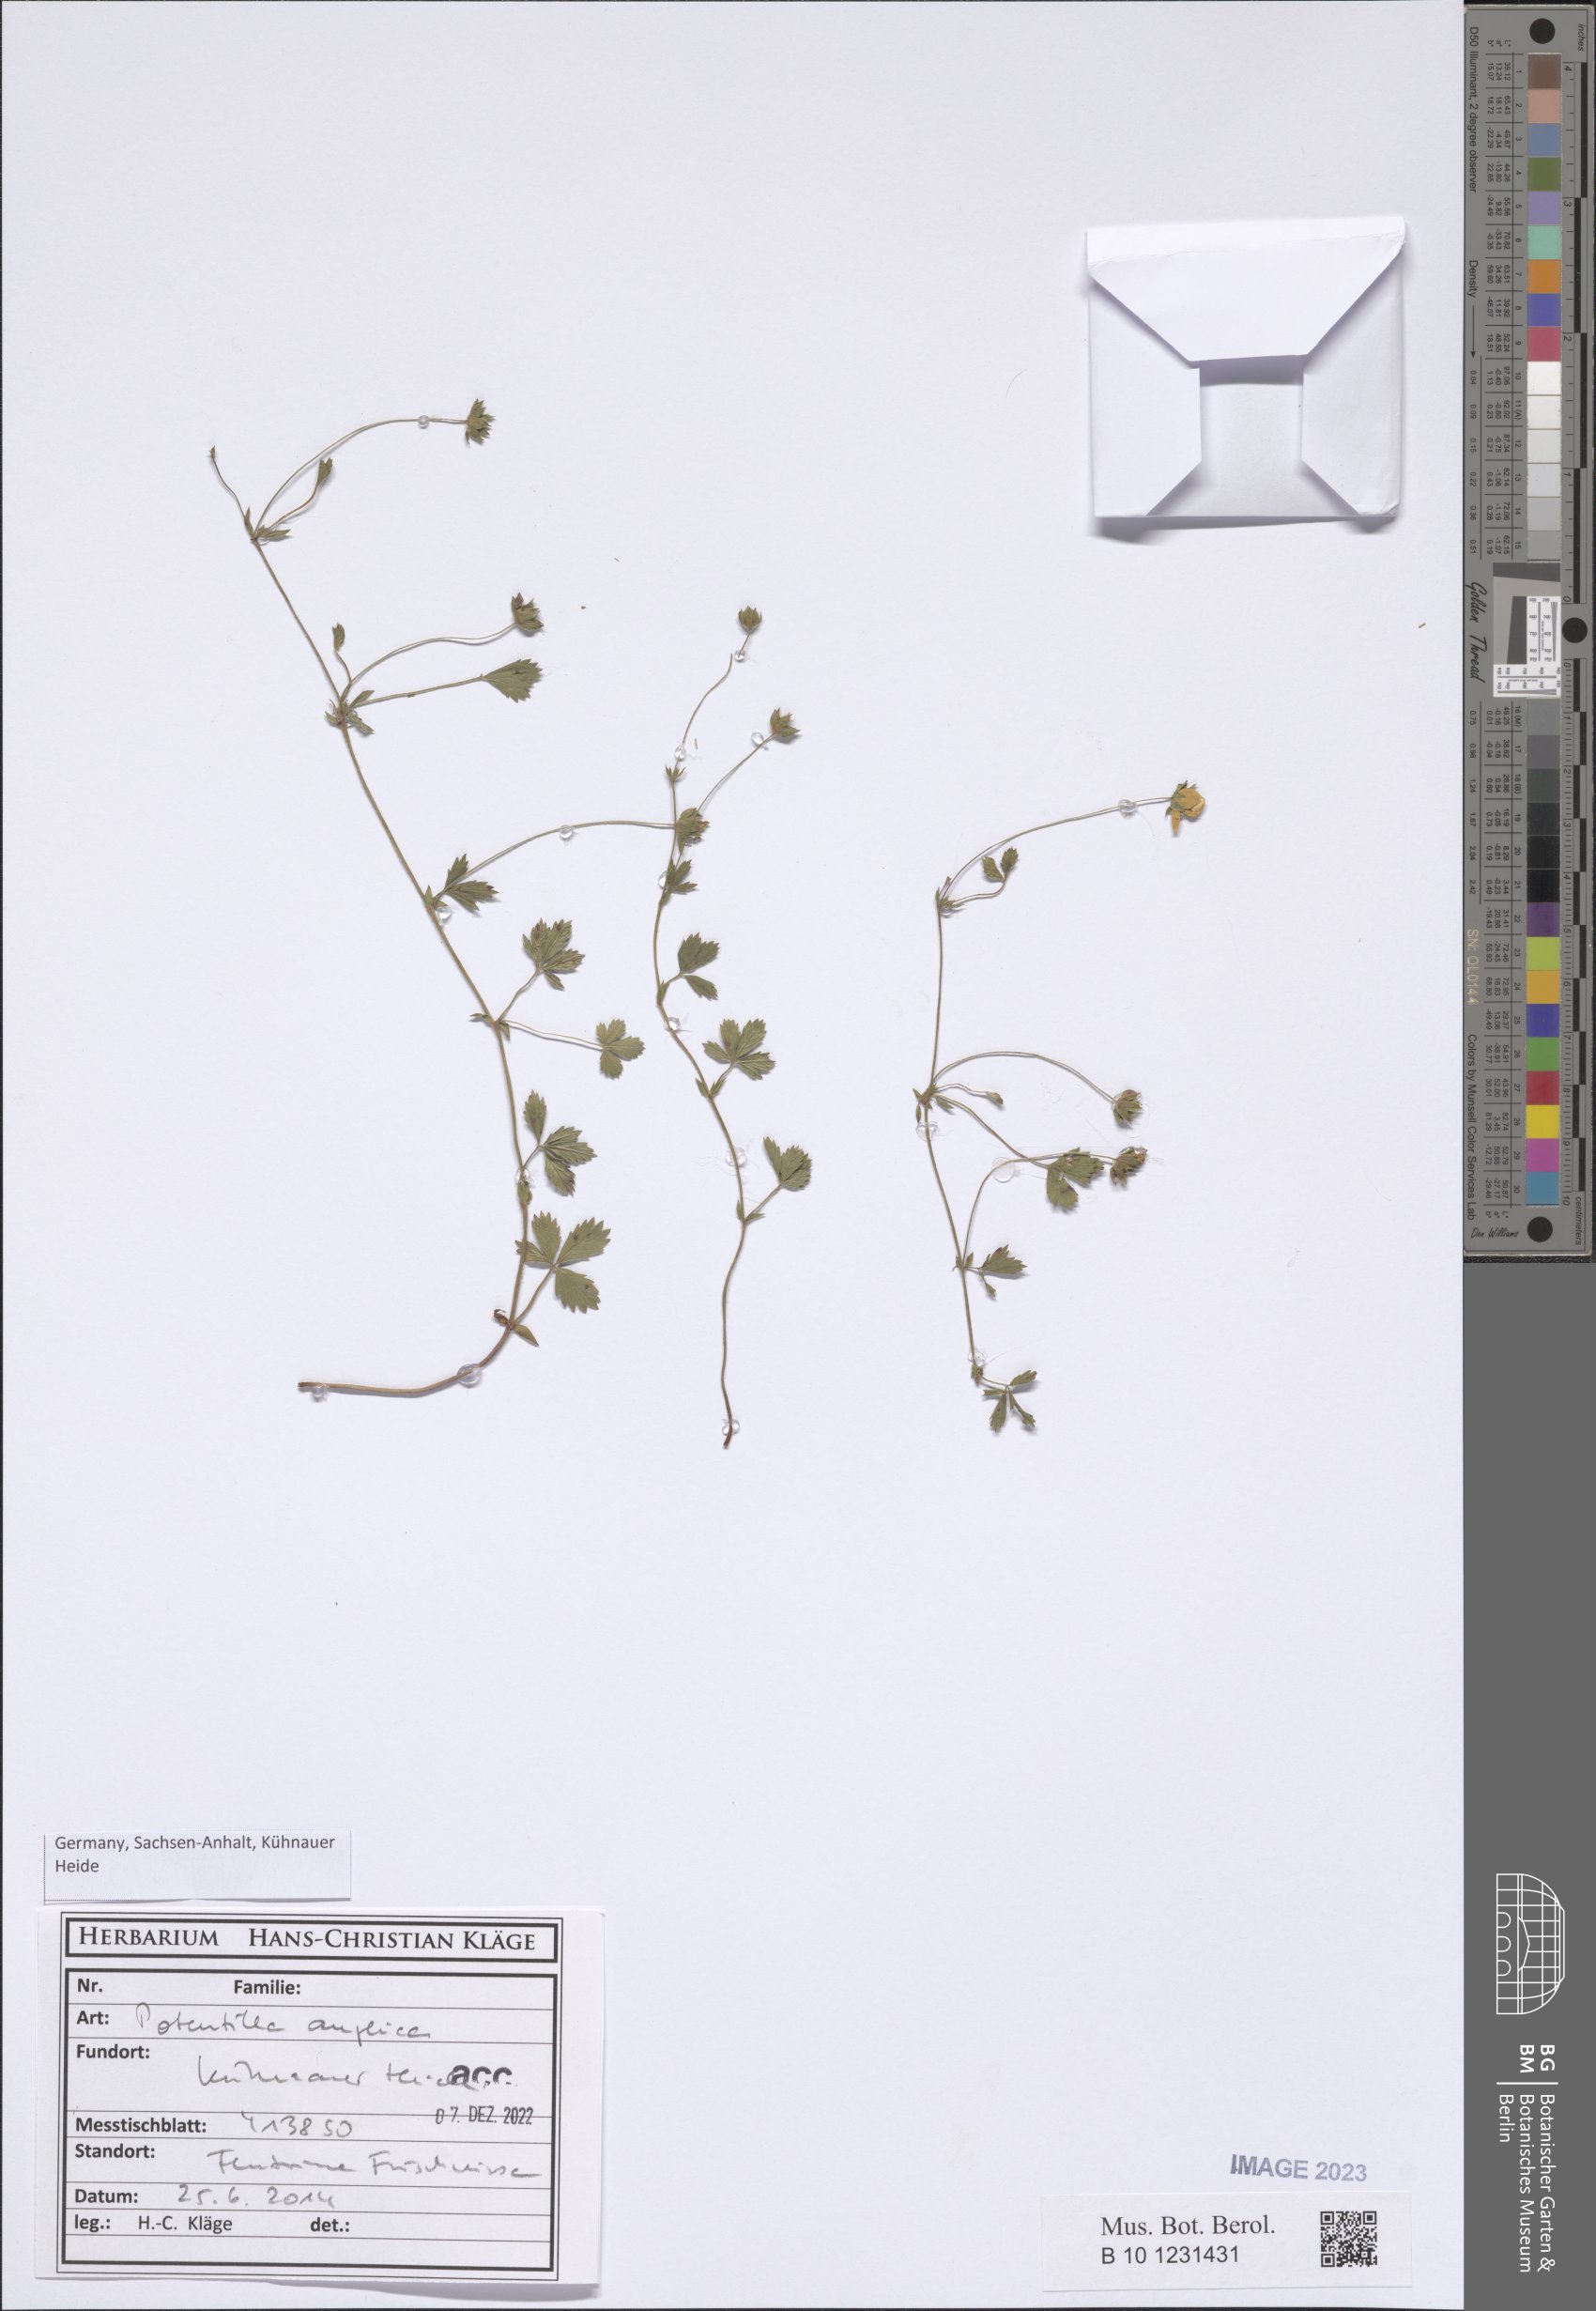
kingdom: Plantae
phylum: Tracheophyta
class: Magnoliopsida
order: Rosales
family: Rosaceae
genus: Potentilla
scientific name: Potentilla anglica
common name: Trailing tormentil
